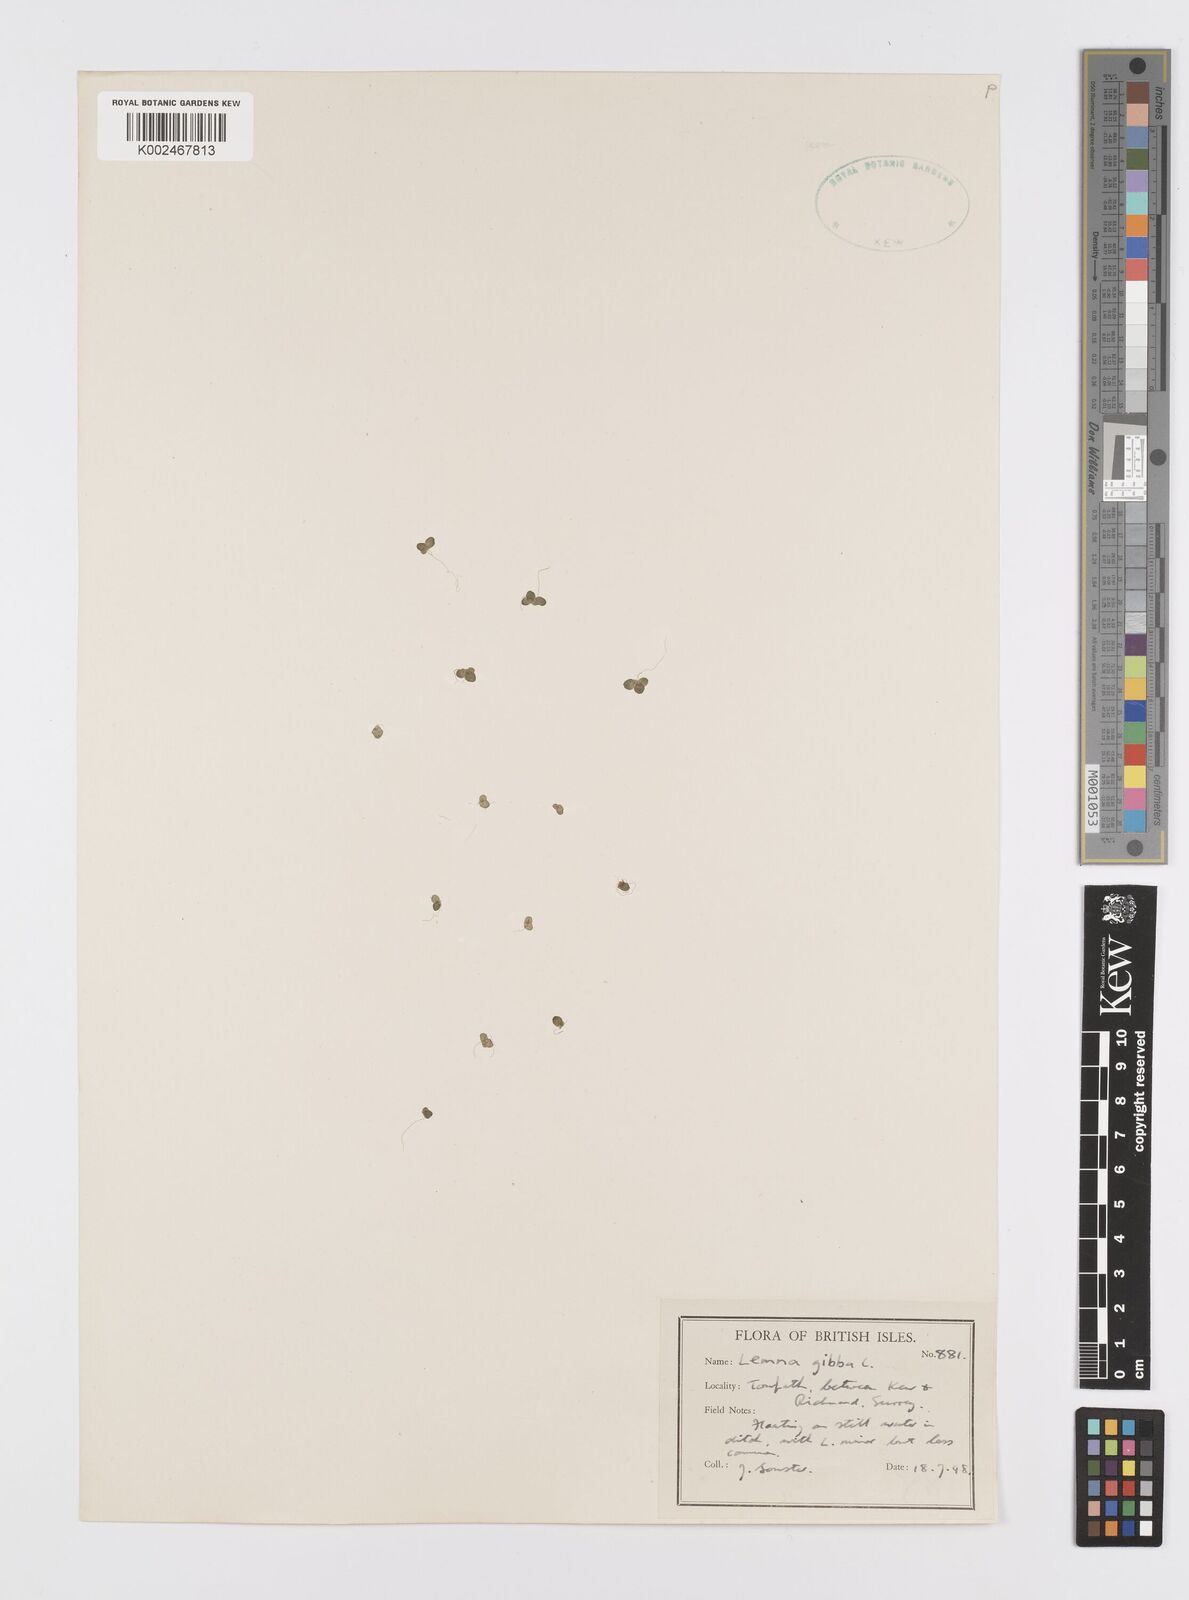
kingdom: Plantae
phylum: Tracheophyta
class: Liliopsida
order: Alismatales
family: Araceae
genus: Lemna
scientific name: Lemna gibba
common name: Fat duckweed
